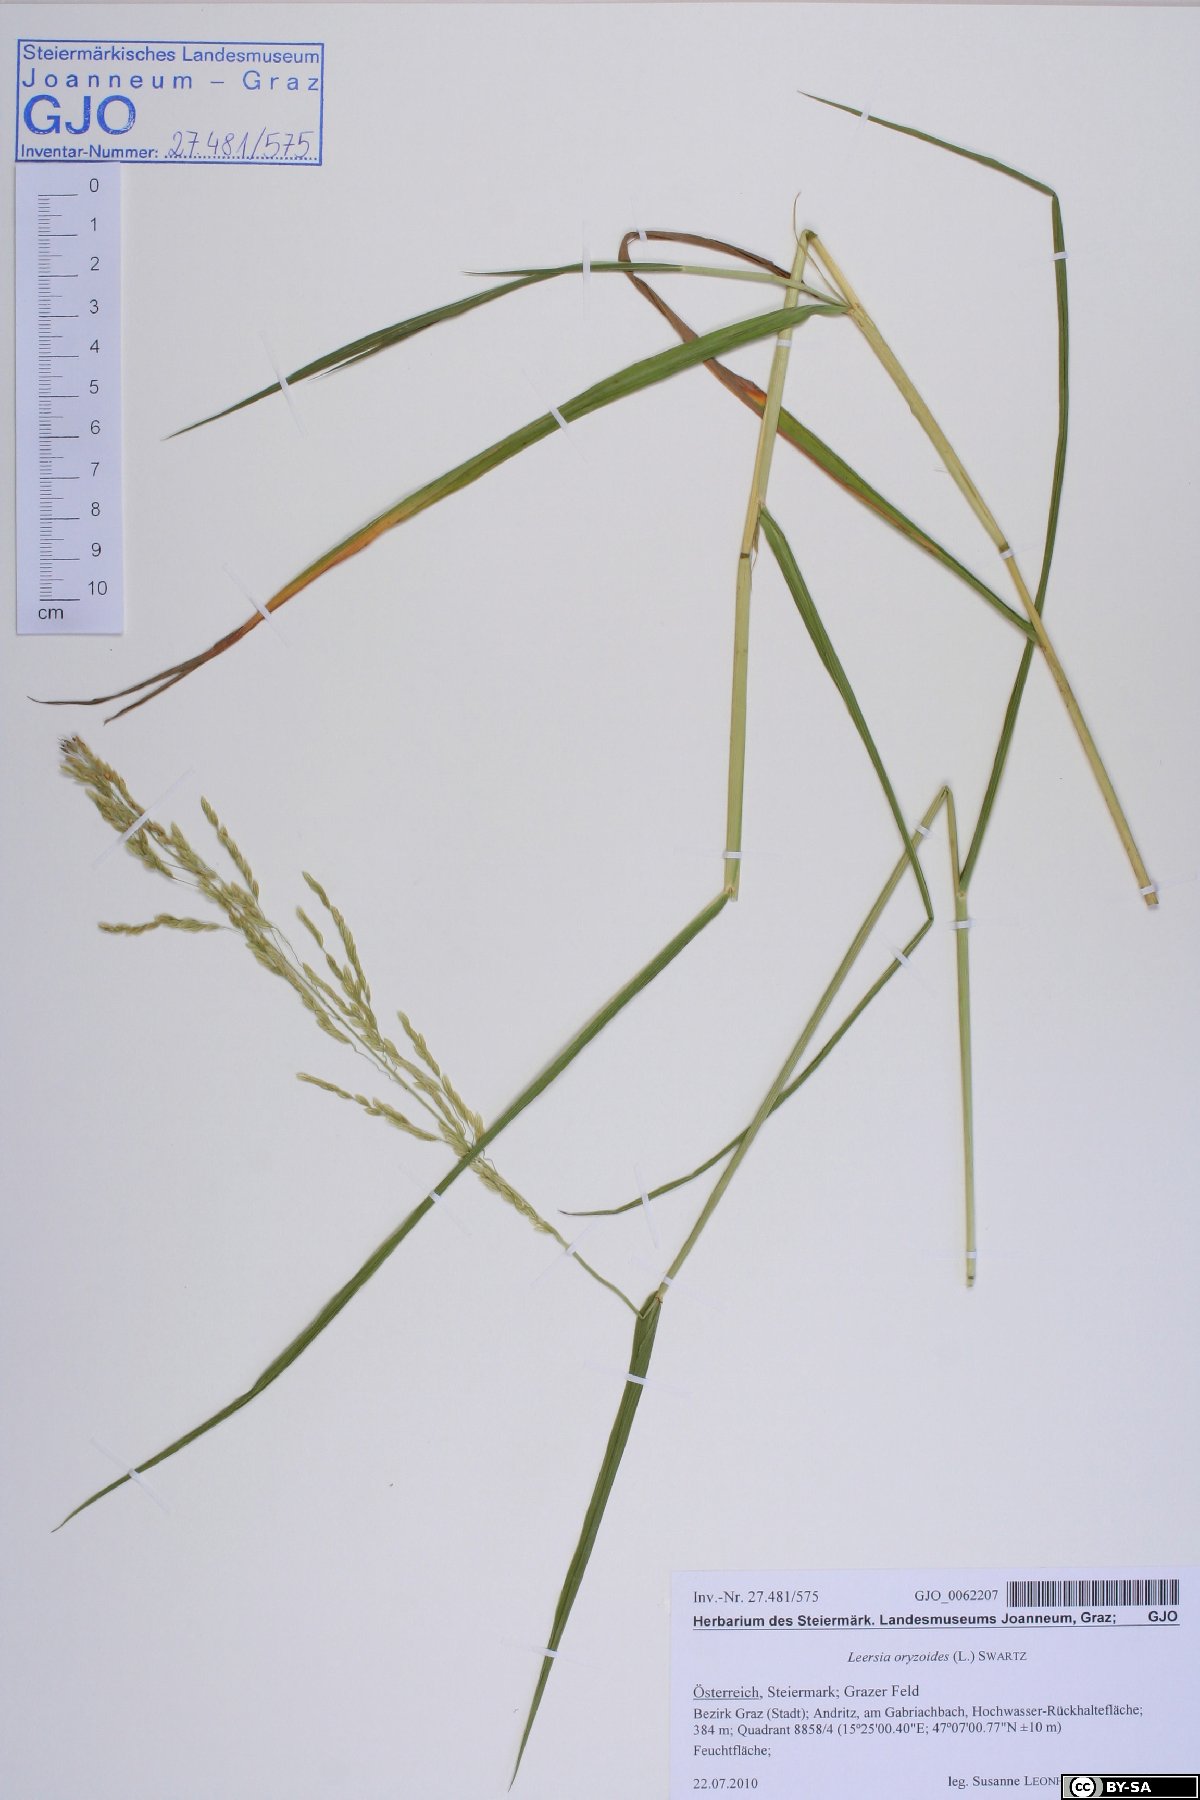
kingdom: Plantae
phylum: Tracheophyta
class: Liliopsida
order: Poales
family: Poaceae
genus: Leersia
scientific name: Leersia oryzoides
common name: Cut-grass
